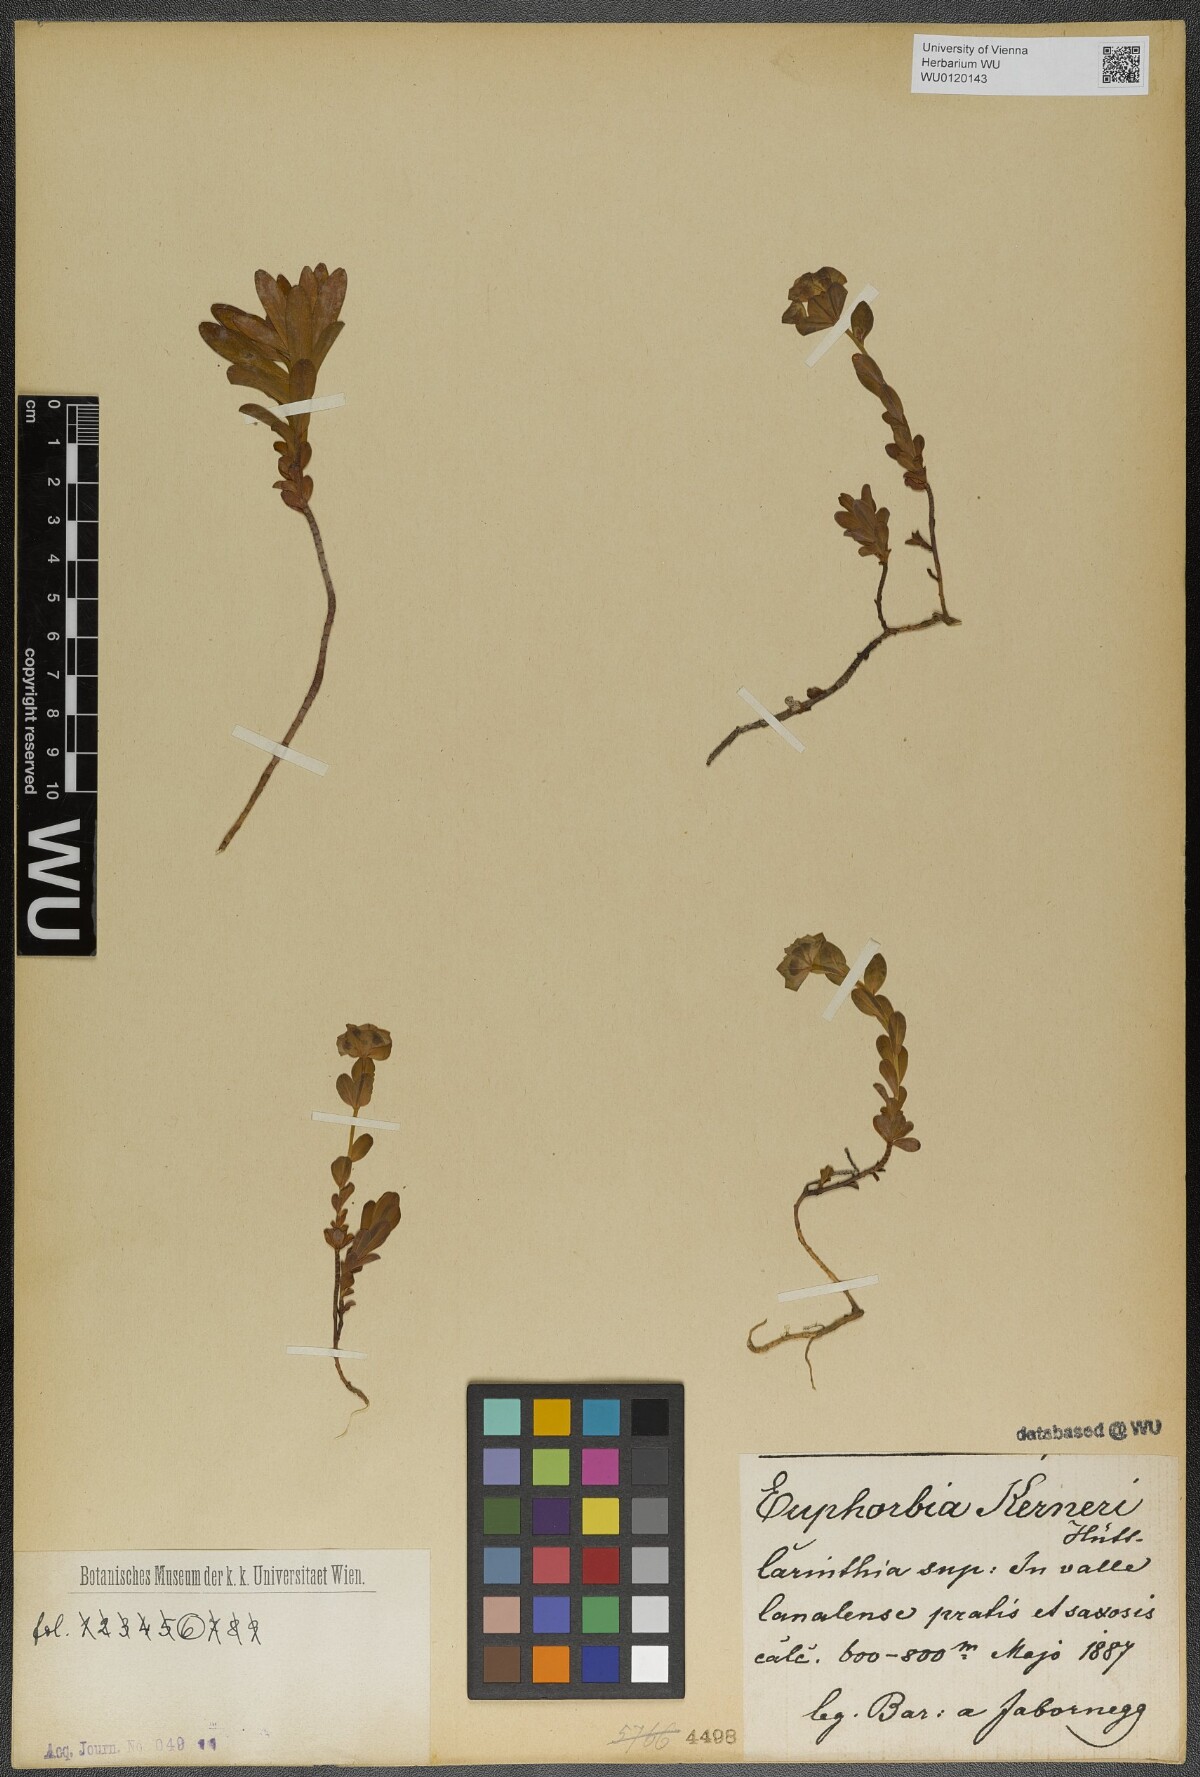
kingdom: Plantae
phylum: Tracheophyta
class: Magnoliopsida
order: Malpighiales
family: Euphorbiaceae
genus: Euphorbia
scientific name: Euphorbia kerneri
